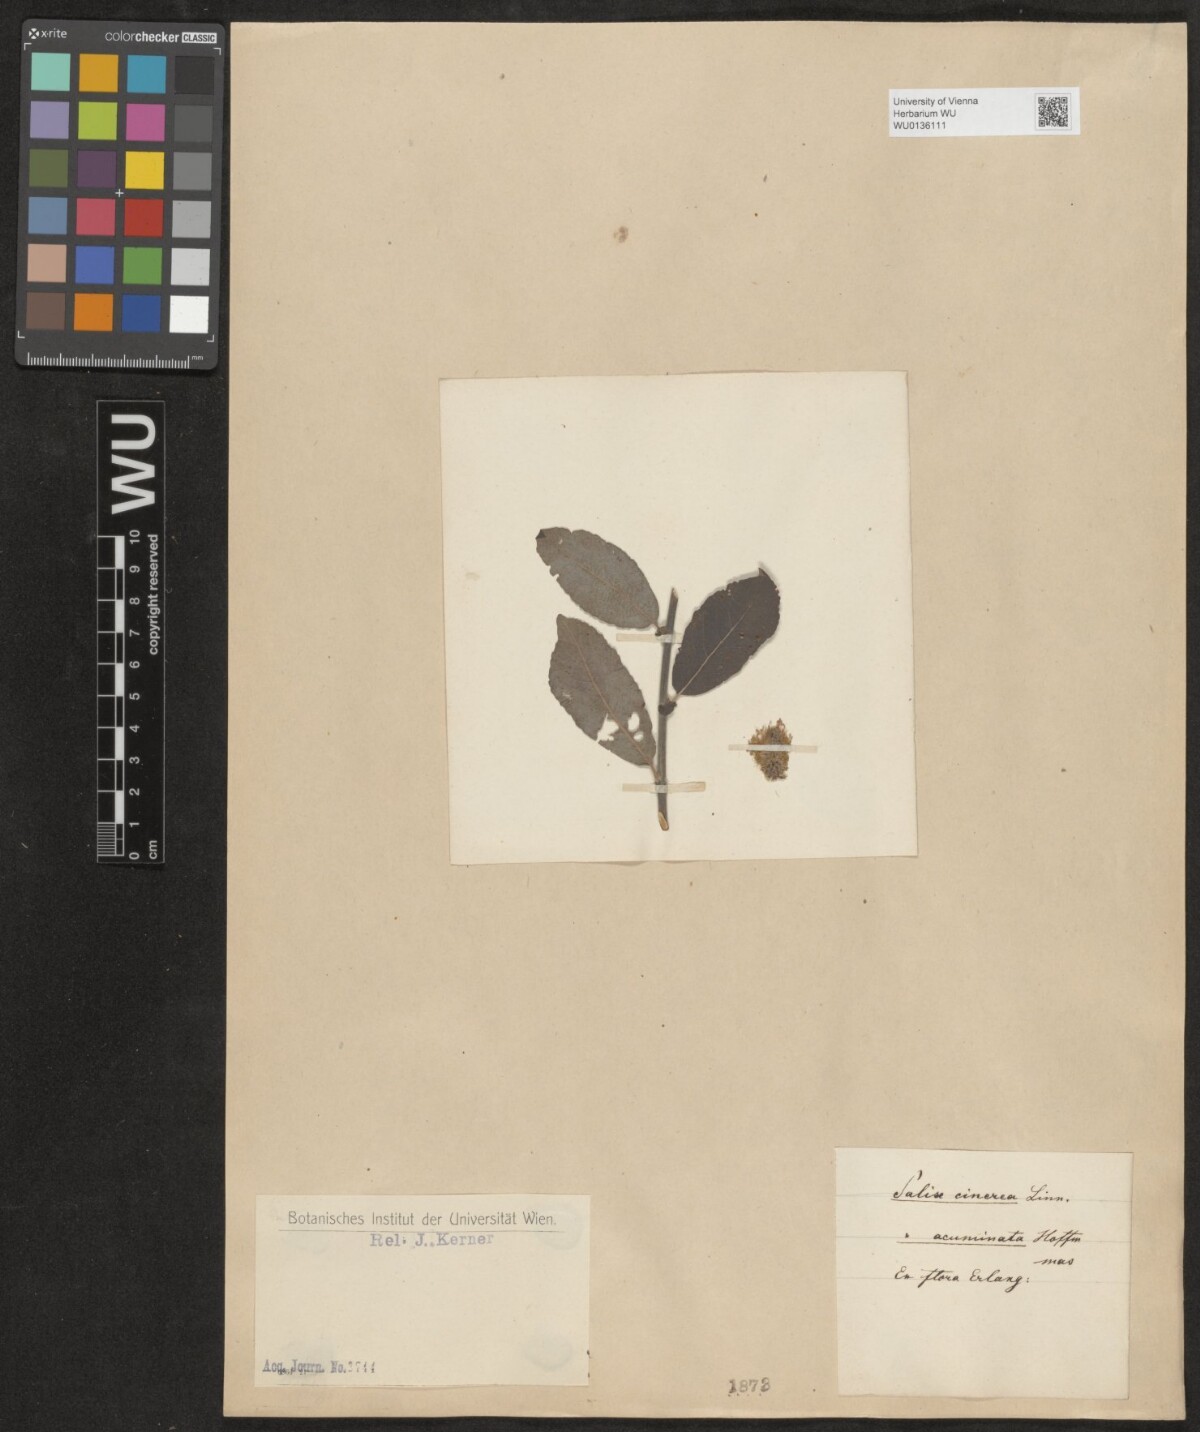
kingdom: Plantae
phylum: Tracheophyta
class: Magnoliopsida
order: Malpighiales
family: Salicaceae
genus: Salix
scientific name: Salix cinerea
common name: Common sallow
